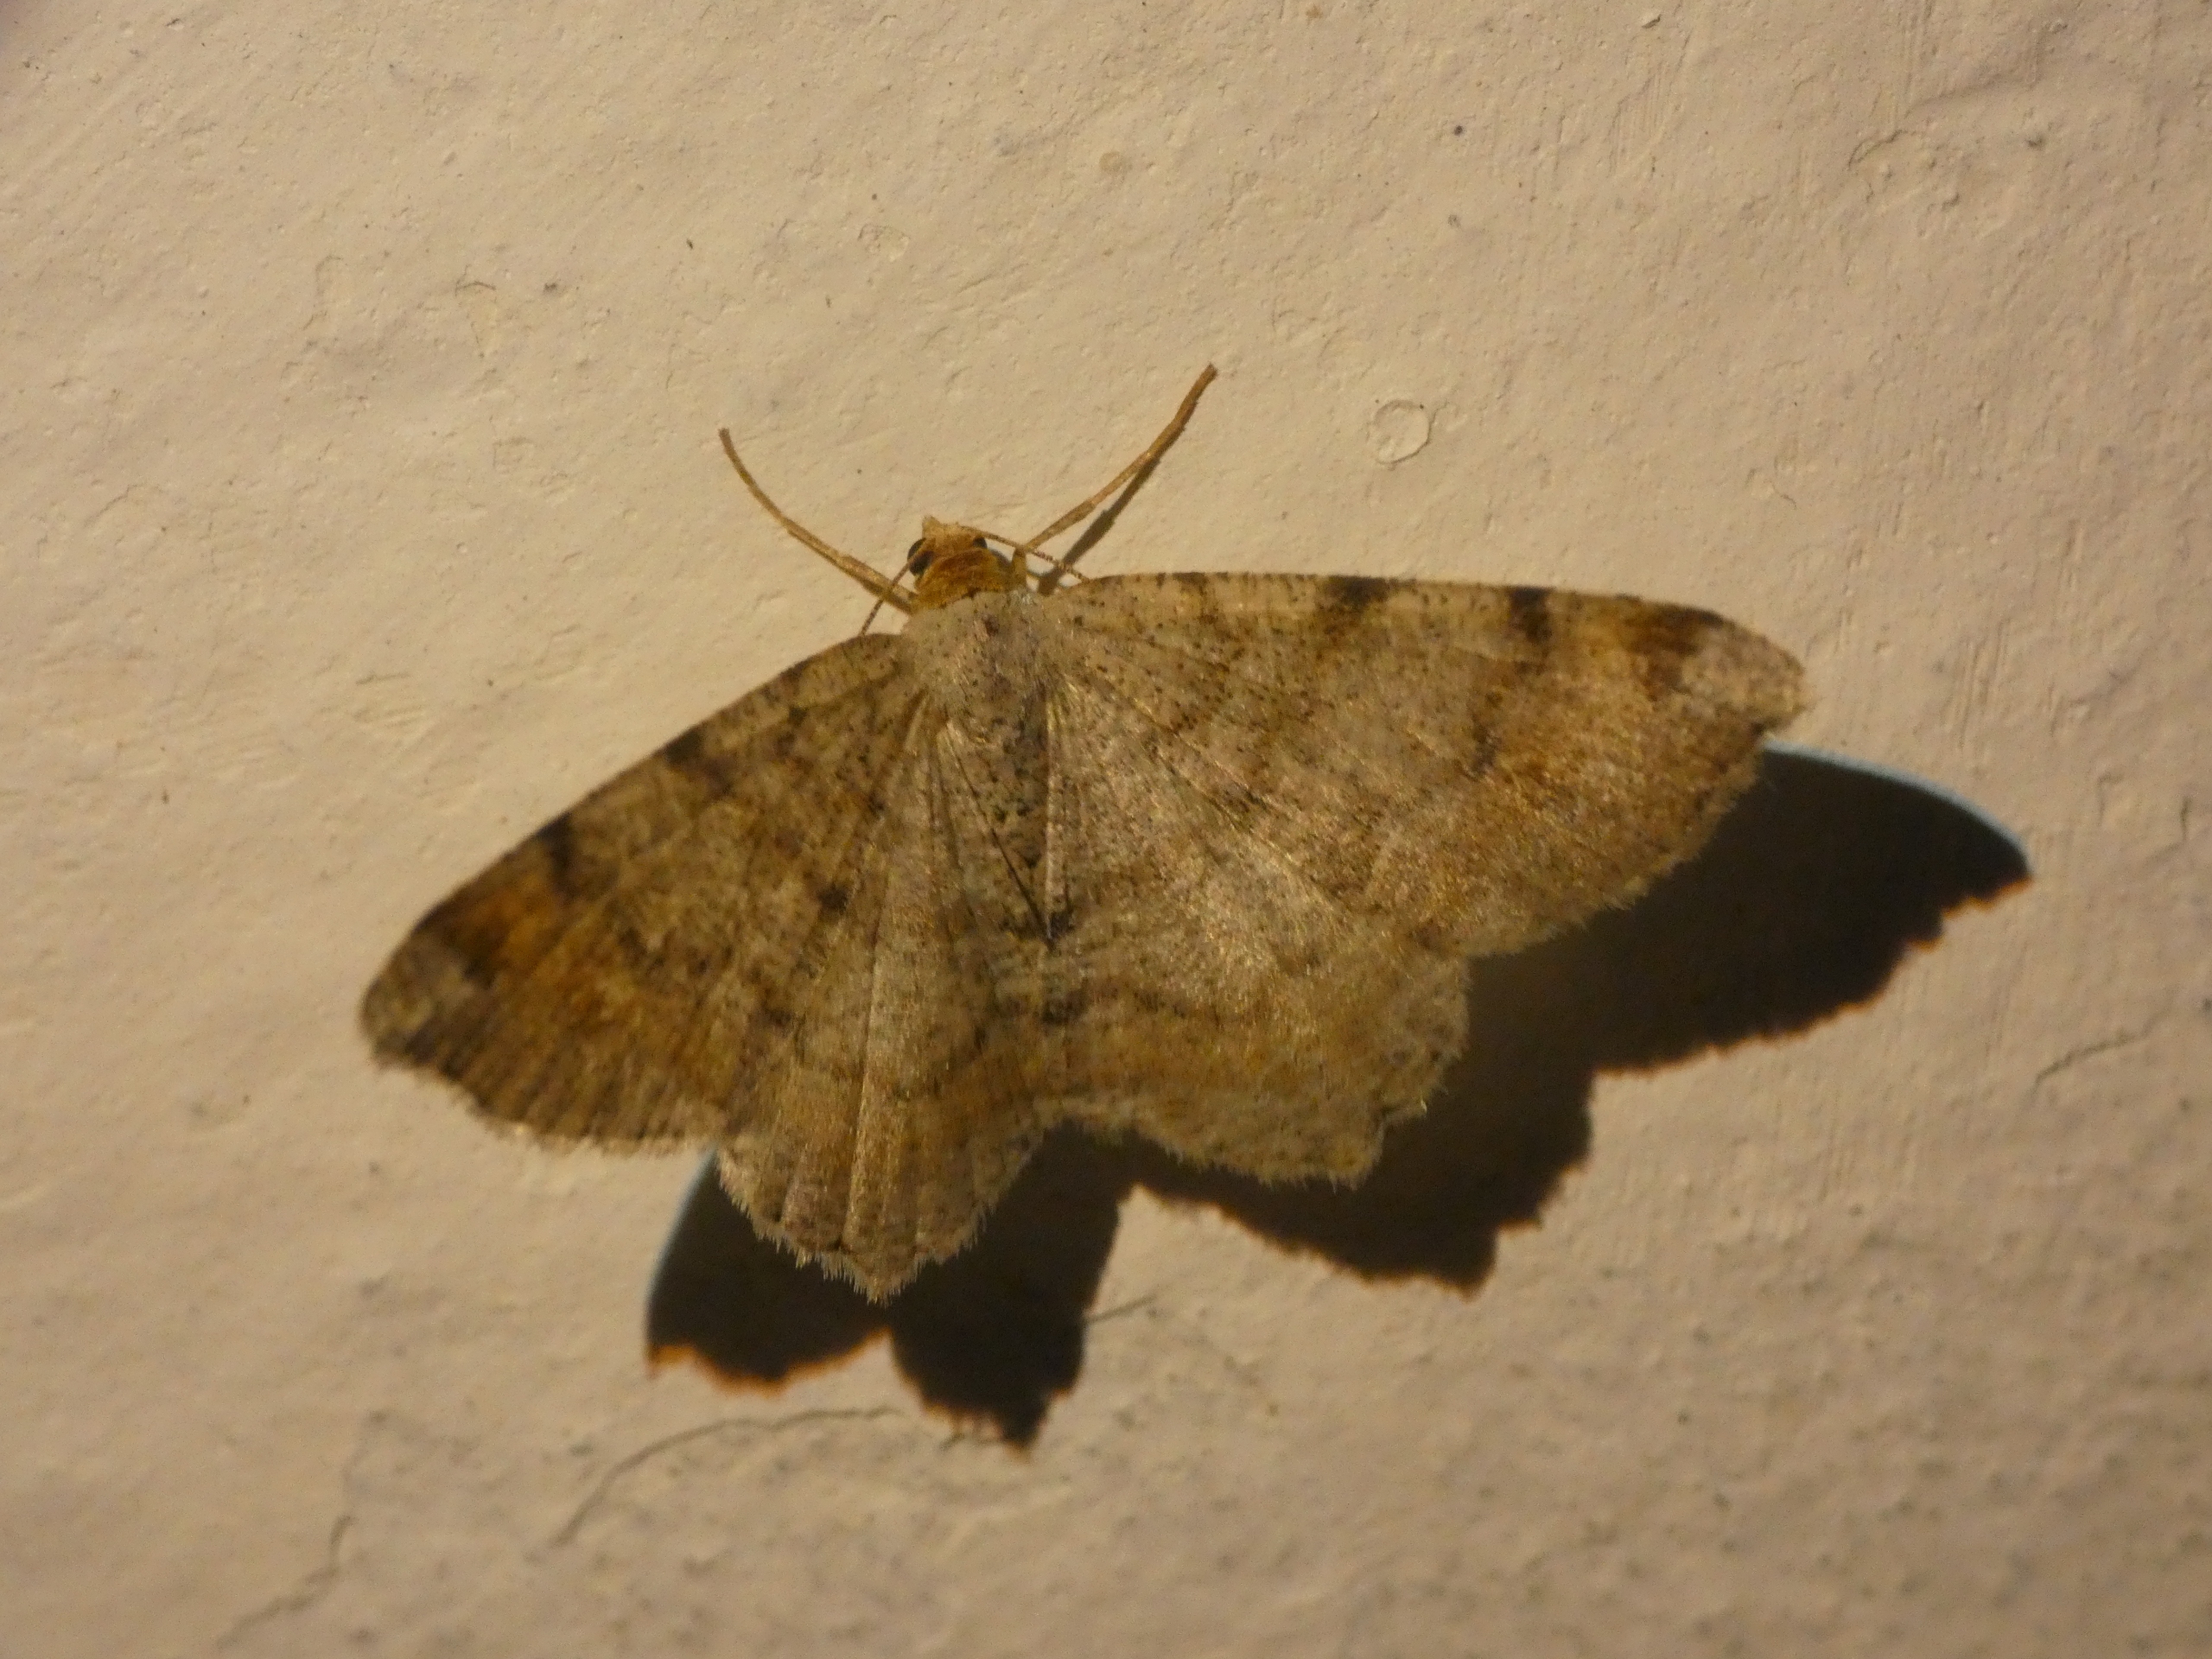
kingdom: Animalia
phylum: Arthropoda
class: Insecta
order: Lepidoptera
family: Geometridae
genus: Macaria
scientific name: Macaria liturata
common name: Fyrre-skovmåler
